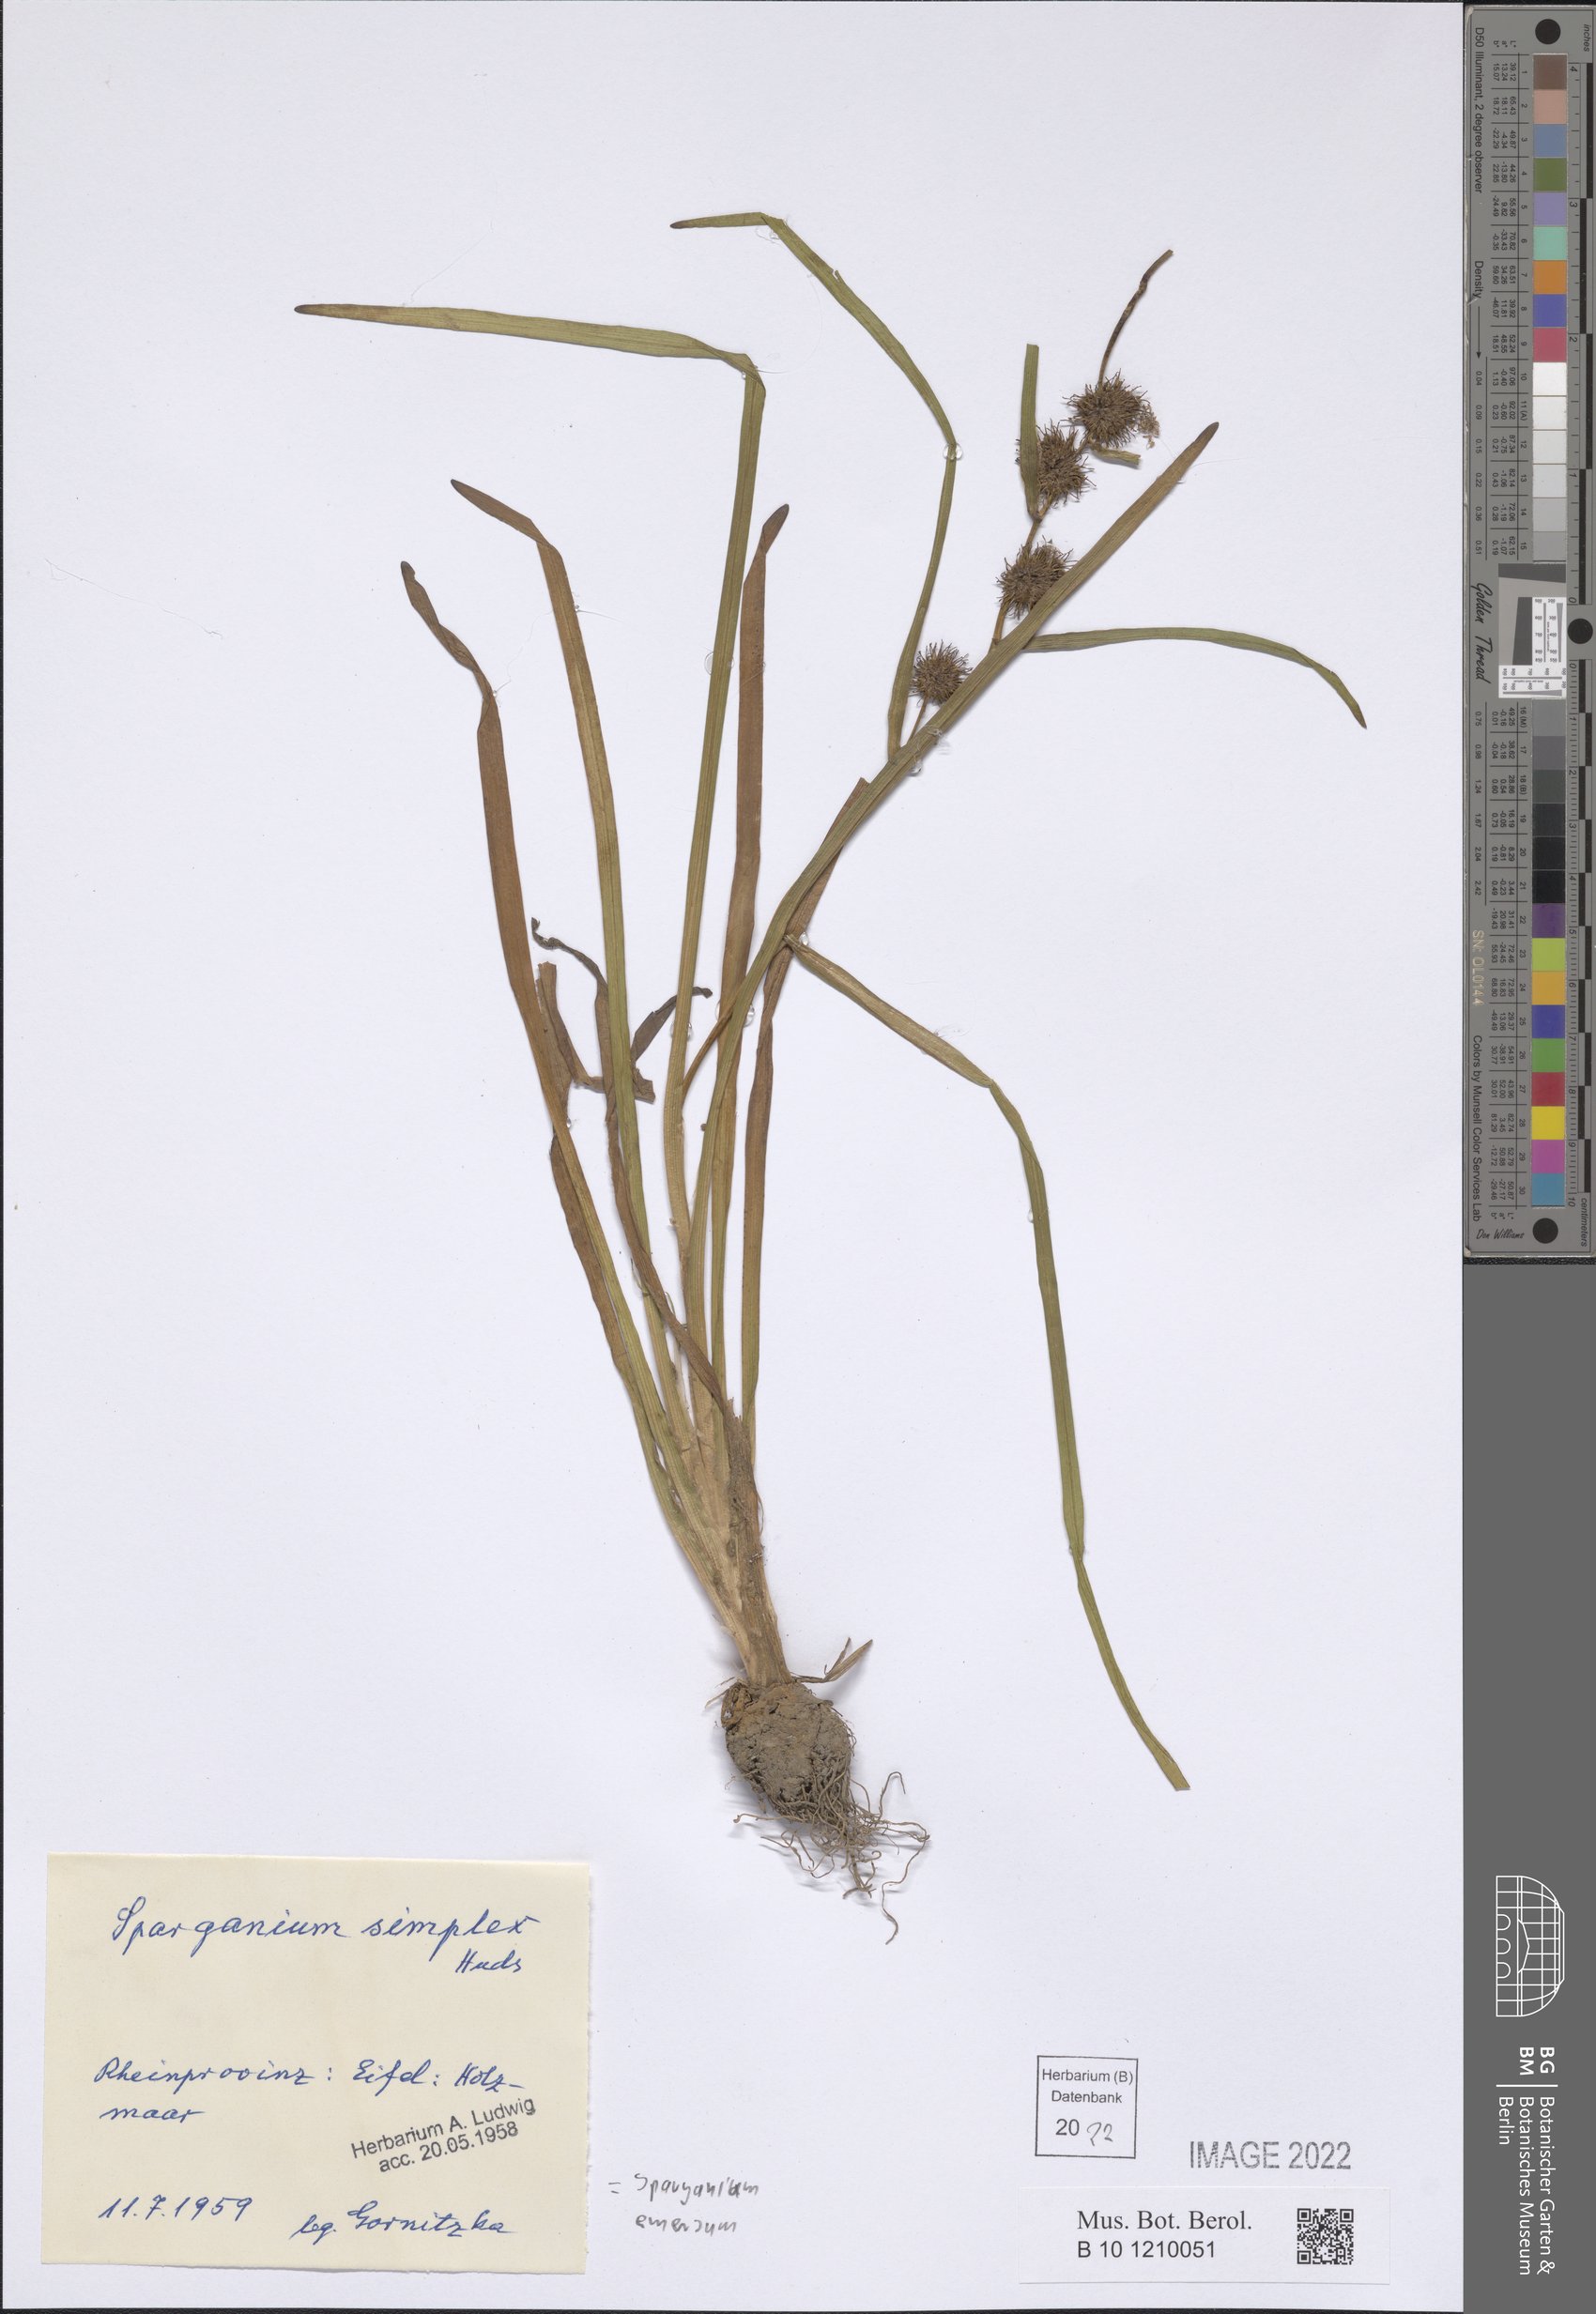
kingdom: Plantae
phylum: Tracheophyta
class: Liliopsida
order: Poales
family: Typhaceae
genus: Sparganium
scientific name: Sparganium emersum
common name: Unbranched bur-reed
